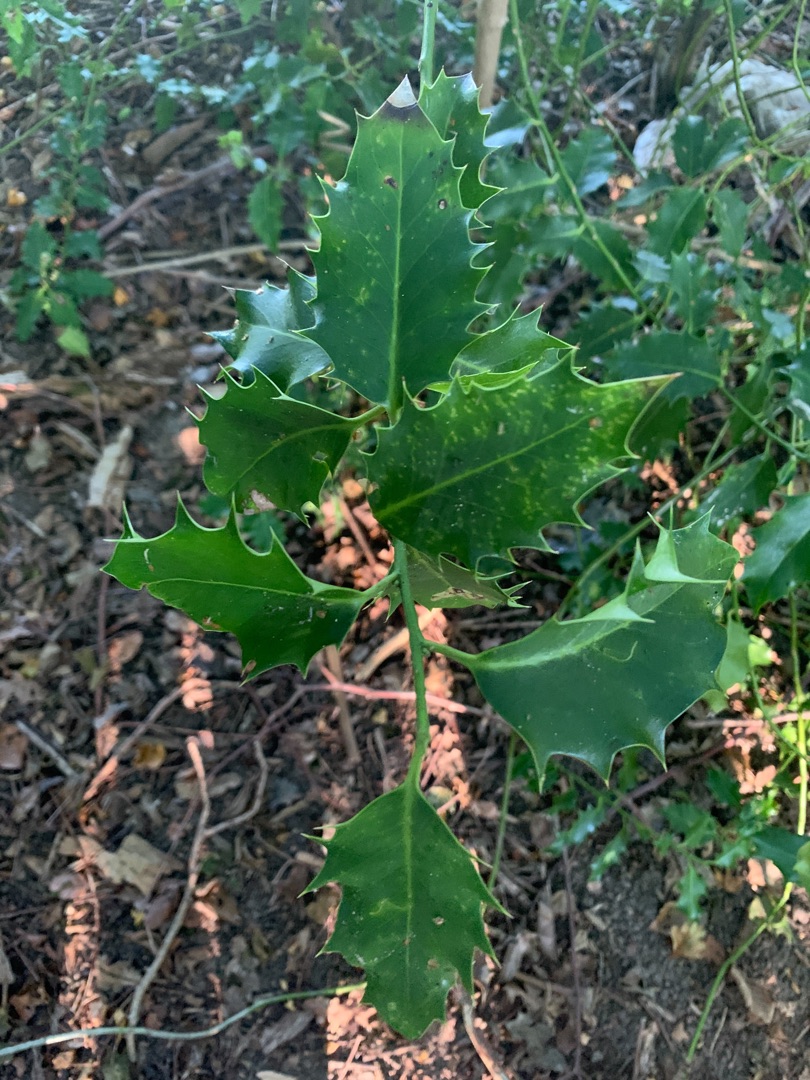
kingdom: Plantae
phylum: Tracheophyta
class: Magnoliopsida
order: Aquifoliales
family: Aquifoliaceae
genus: Ilex
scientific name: Ilex aquifolium
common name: Kristtorn
